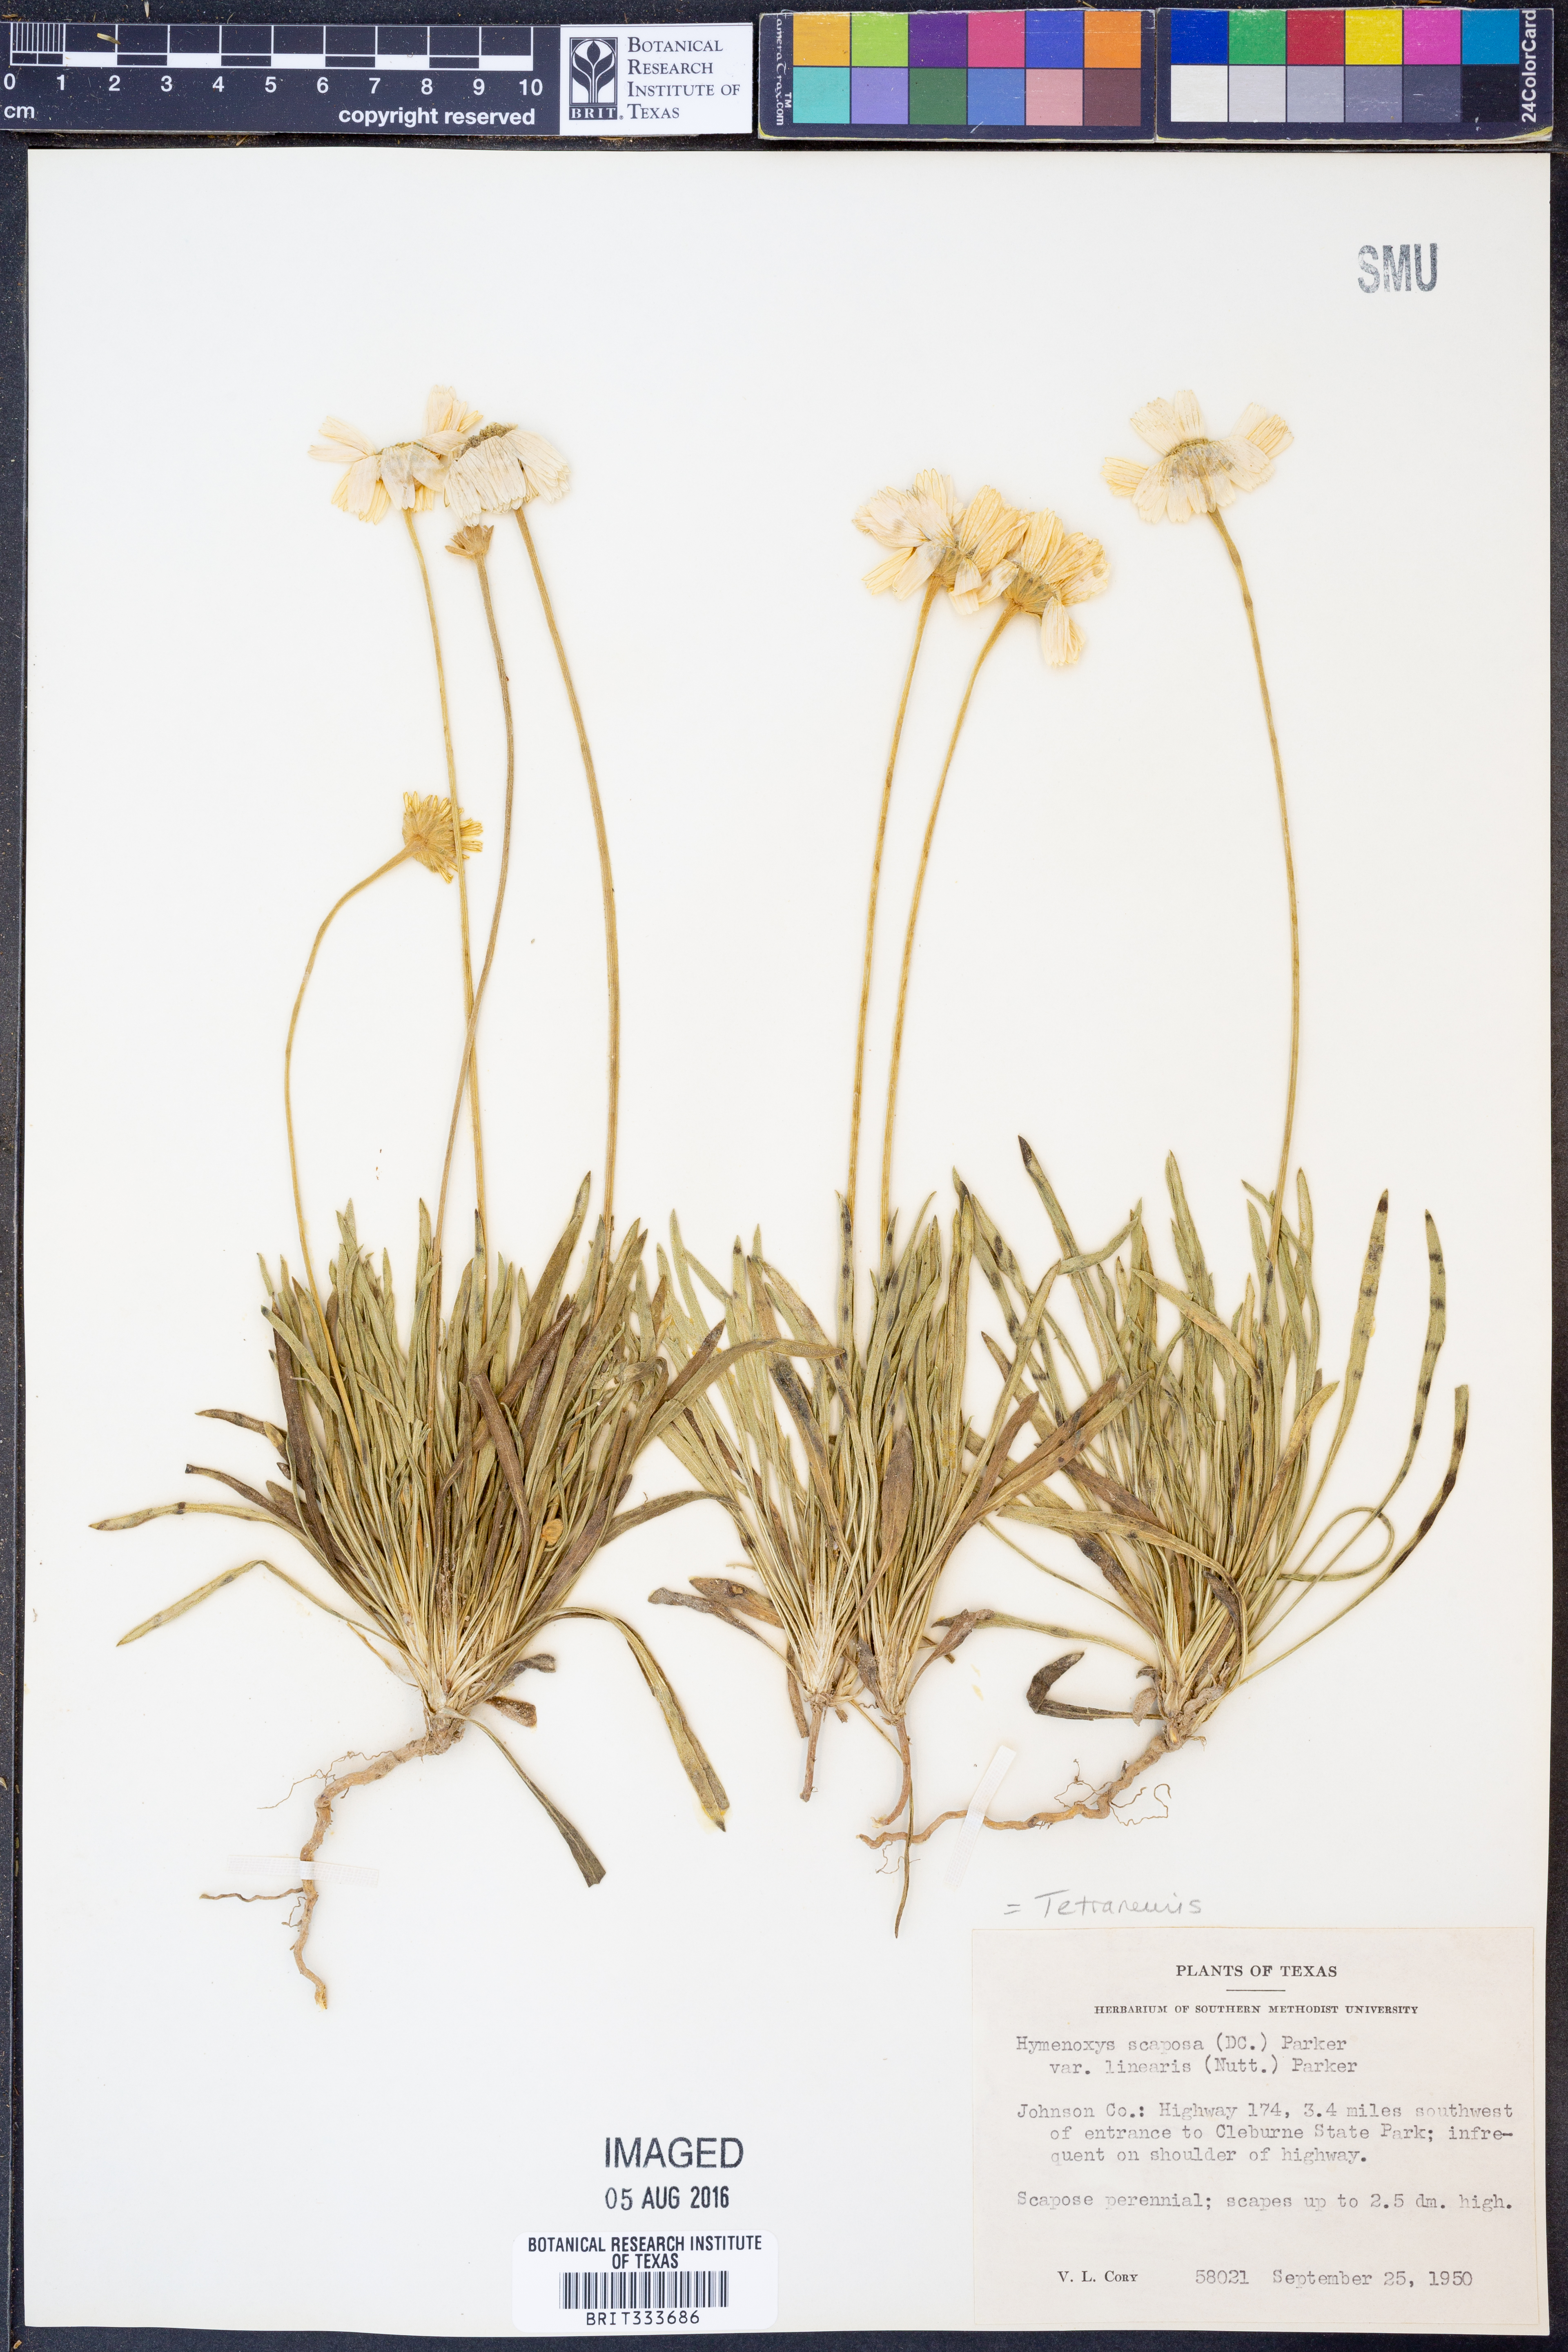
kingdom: Plantae
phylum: Tracheophyta
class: Magnoliopsida
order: Asterales
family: Asteraceae
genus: Tetraneuris
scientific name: Tetraneuris scaposa
